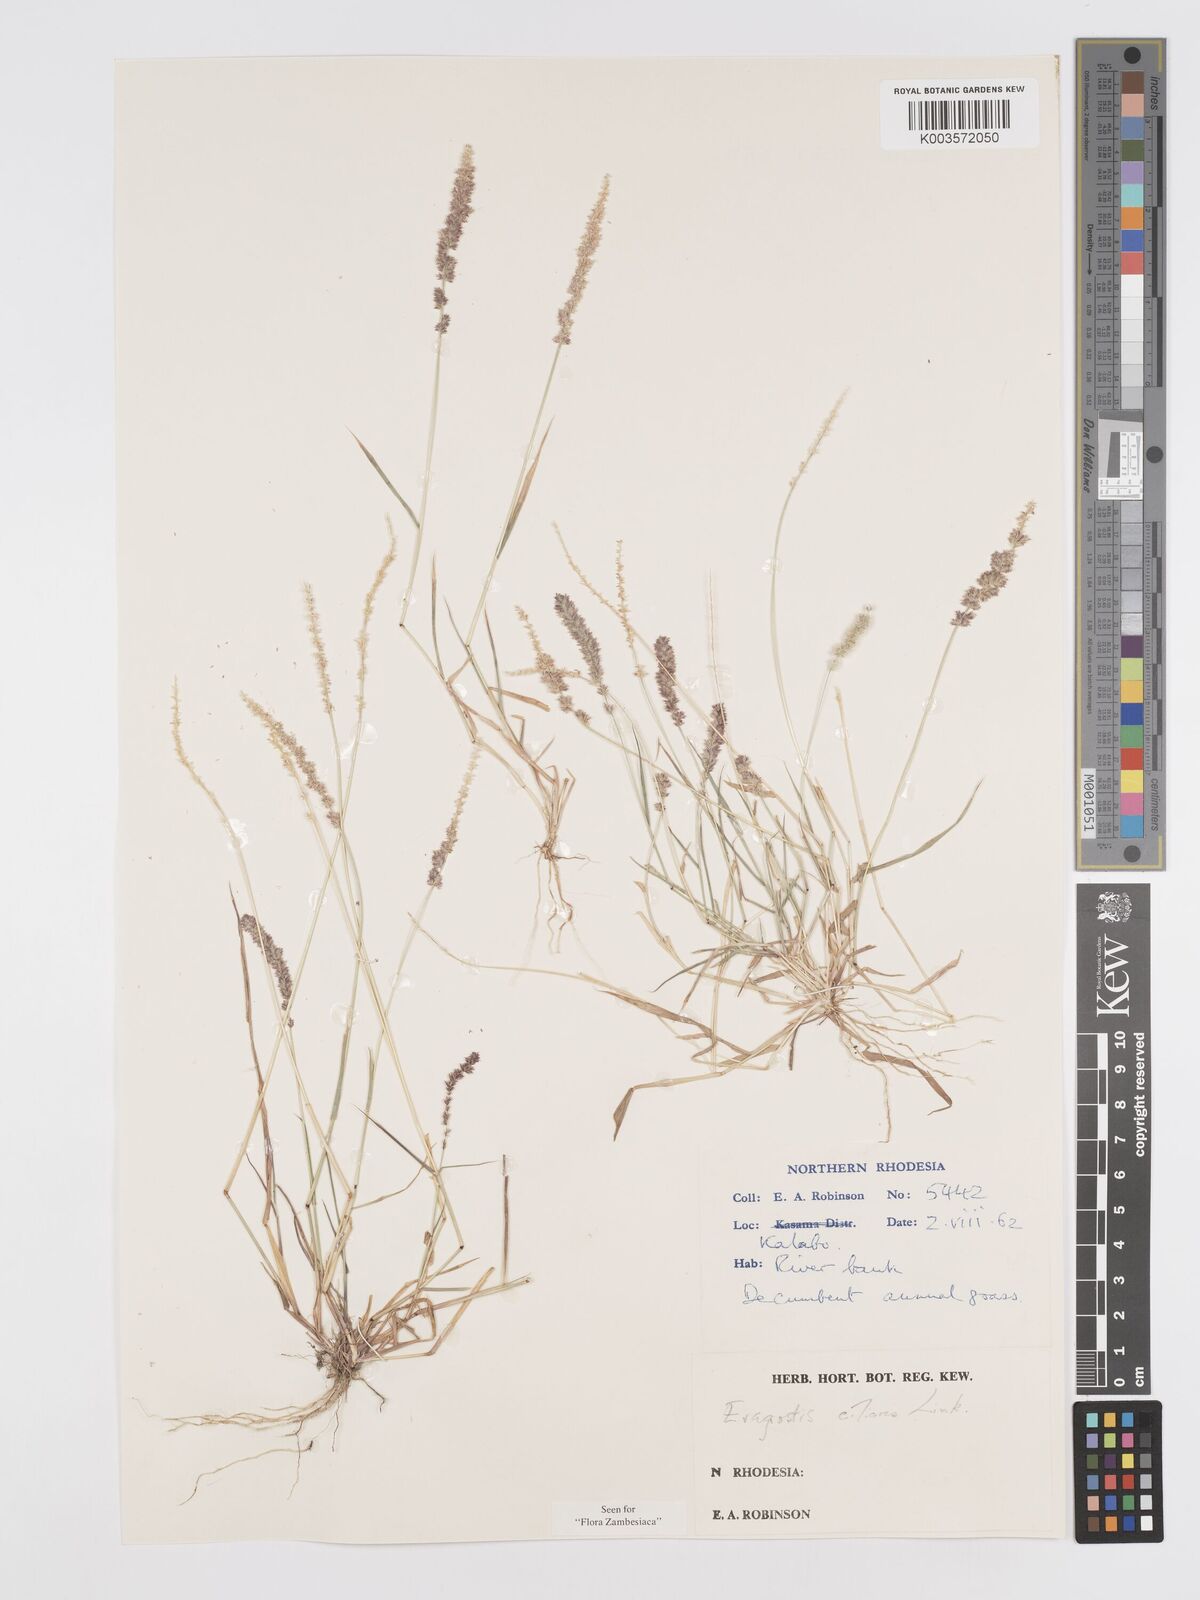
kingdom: Plantae
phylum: Tracheophyta
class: Liliopsida
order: Poales
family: Poaceae
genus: Eragrostis
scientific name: Eragrostis ciliaris
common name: Gophertail lovegrass
